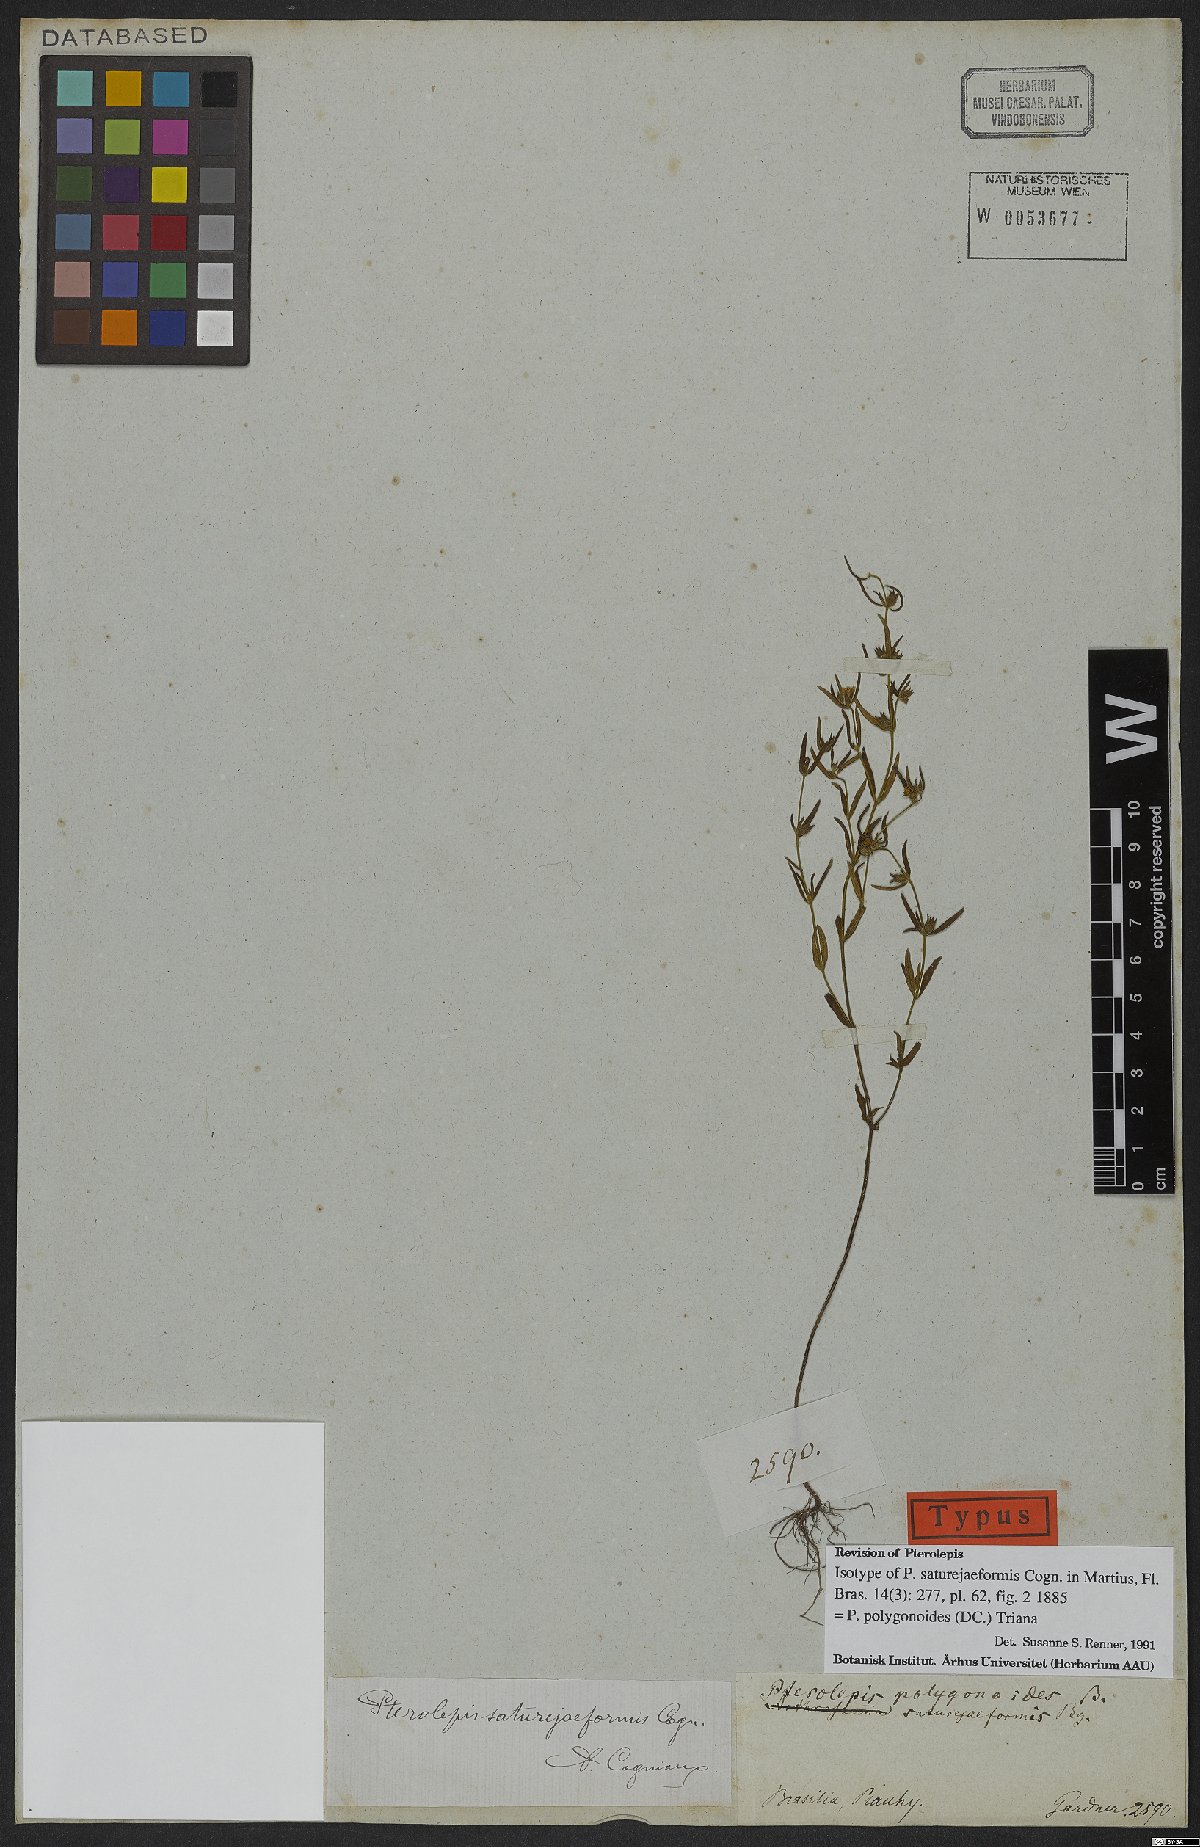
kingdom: Plantae
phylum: Tracheophyta
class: Magnoliopsida
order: Myrtales
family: Melastomataceae
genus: Pterolepis
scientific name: Pterolepis polygonoides
